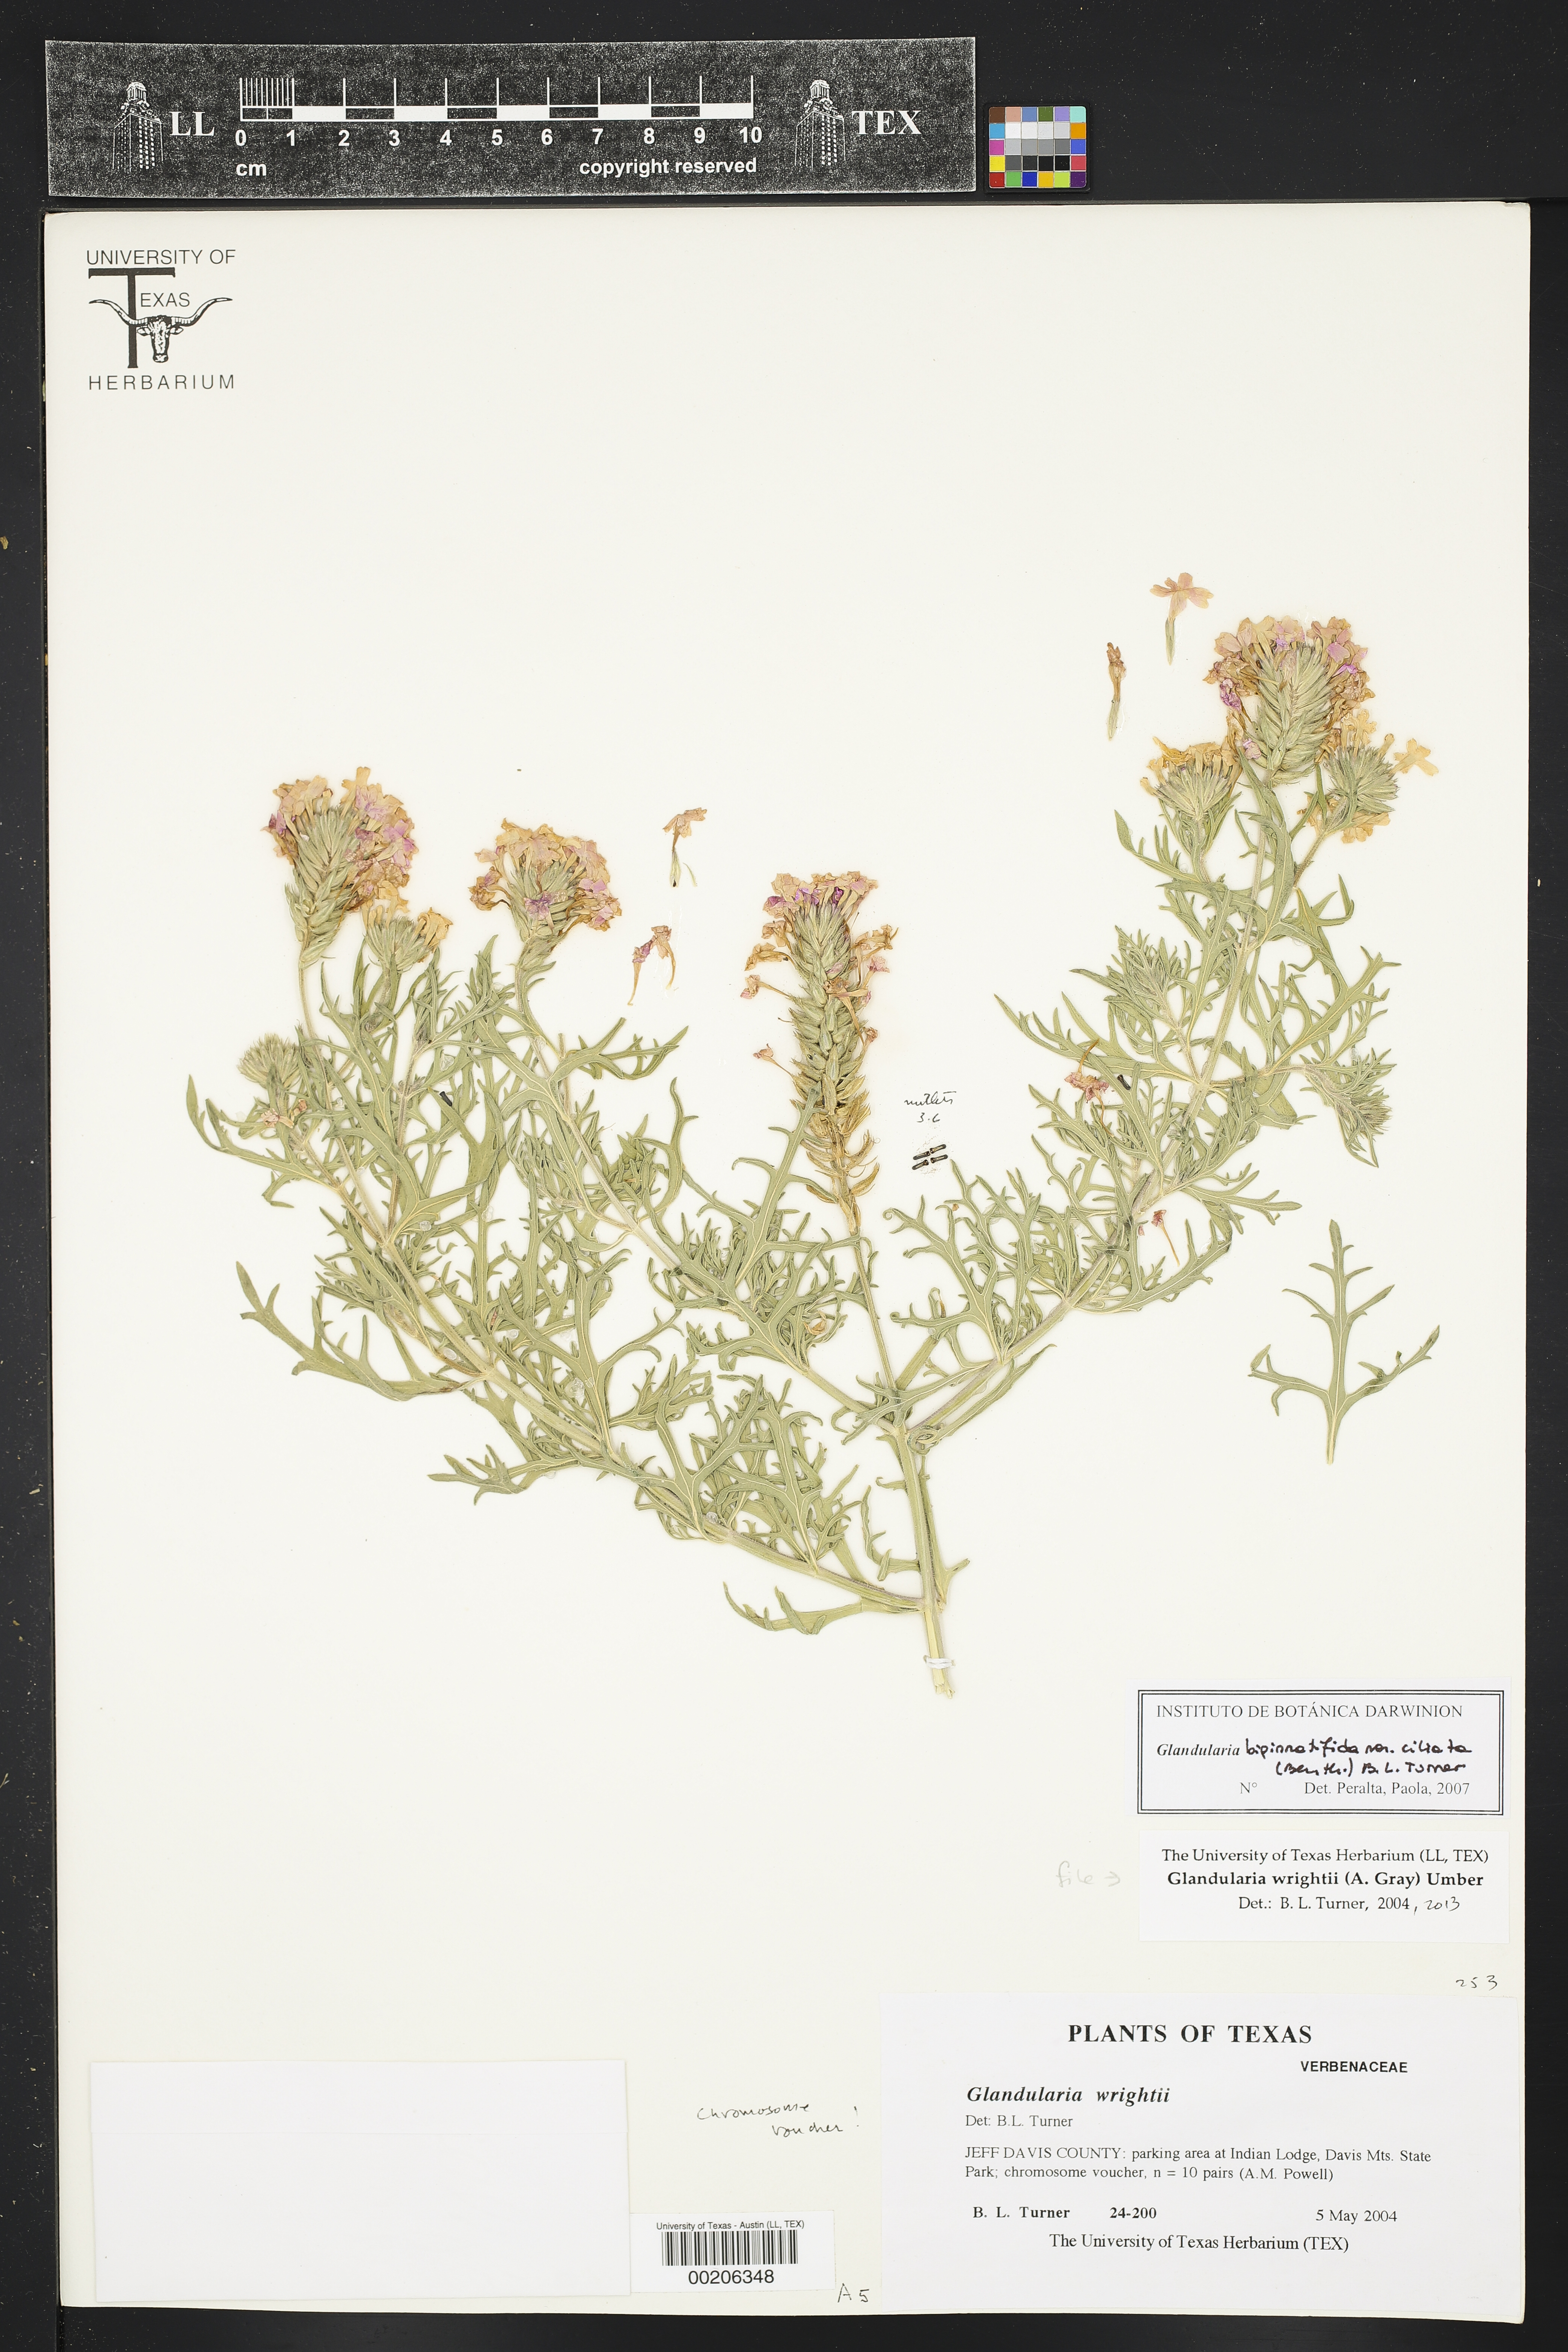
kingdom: Plantae
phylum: Tracheophyta
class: Magnoliopsida
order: Lamiales
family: Verbenaceae
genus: Verbena
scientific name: Verbena bipinnatifida
